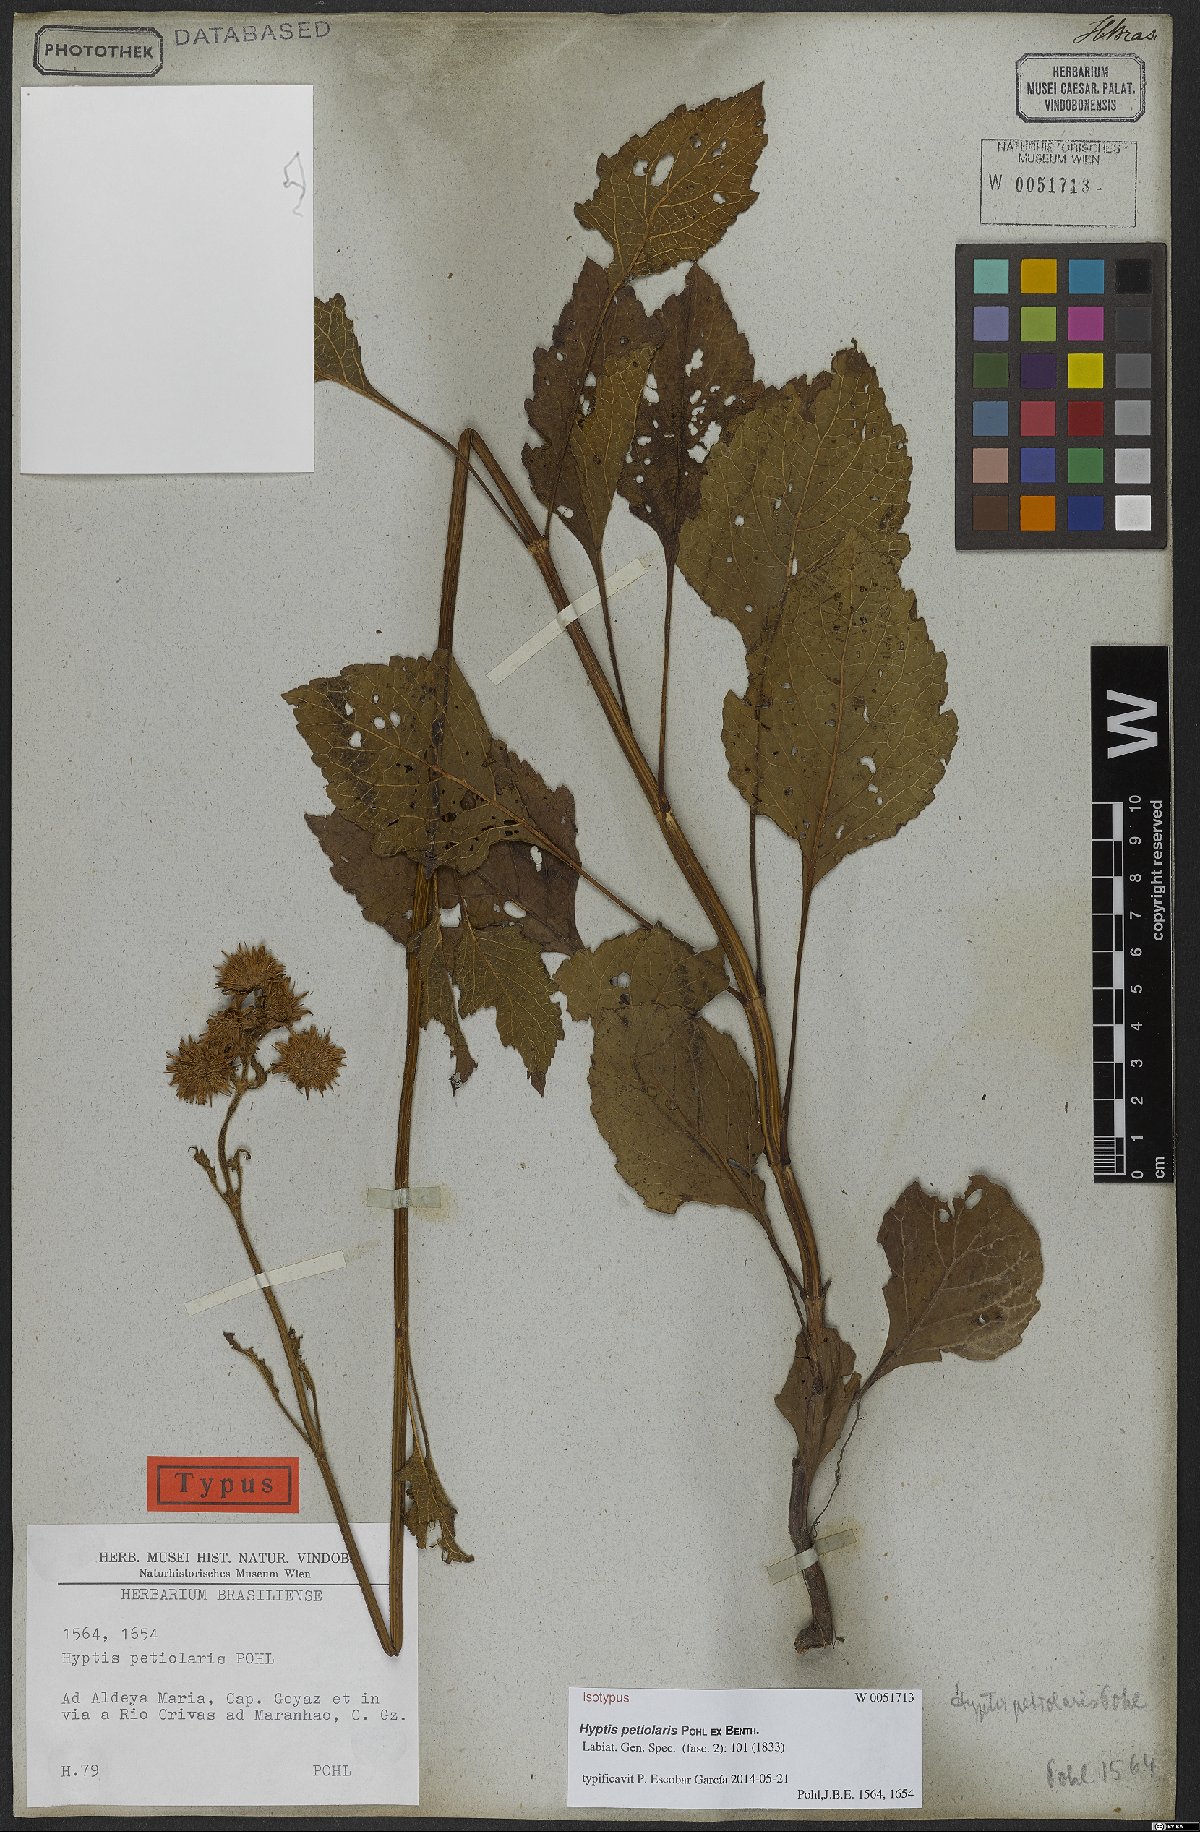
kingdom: Plantae
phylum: Tracheophyta
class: Magnoliopsida
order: Lamiales
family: Lamiaceae
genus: Hyptis
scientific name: Hyptis petiolaris
